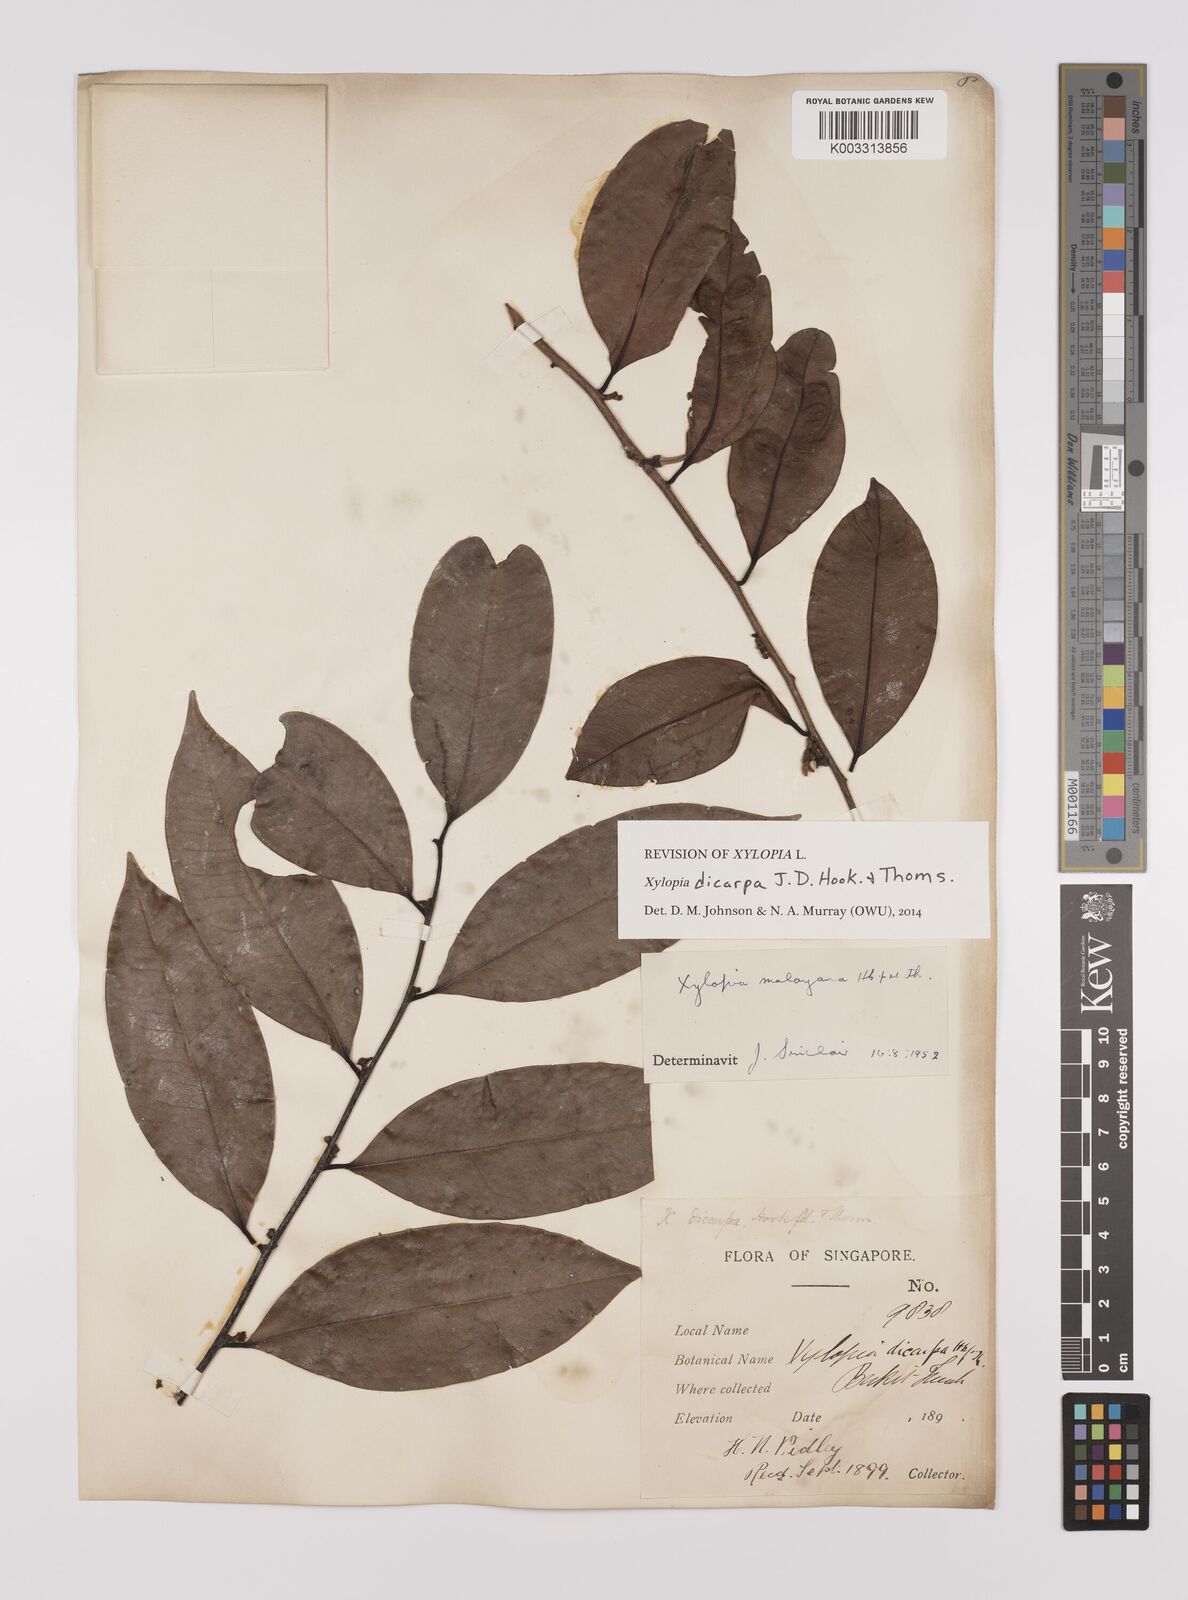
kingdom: Plantae
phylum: Tracheophyta
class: Magnoliopsida
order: Magnoliales
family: Annonaceae
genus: Xylopia
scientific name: Xylopia malayana
